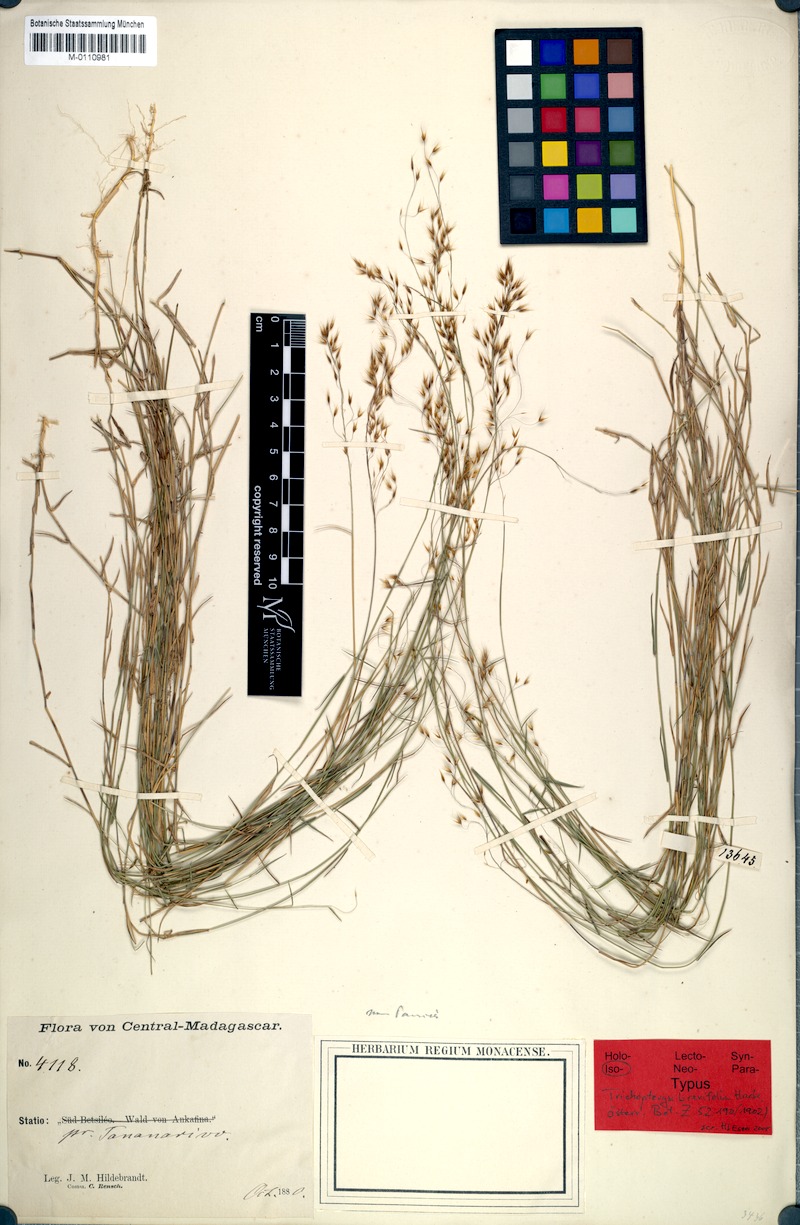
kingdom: Plantae
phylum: Tracheophyta
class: Liliopsida
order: Poales
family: Poaceae
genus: Trichopteryx
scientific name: Trichopteryx dregeana
